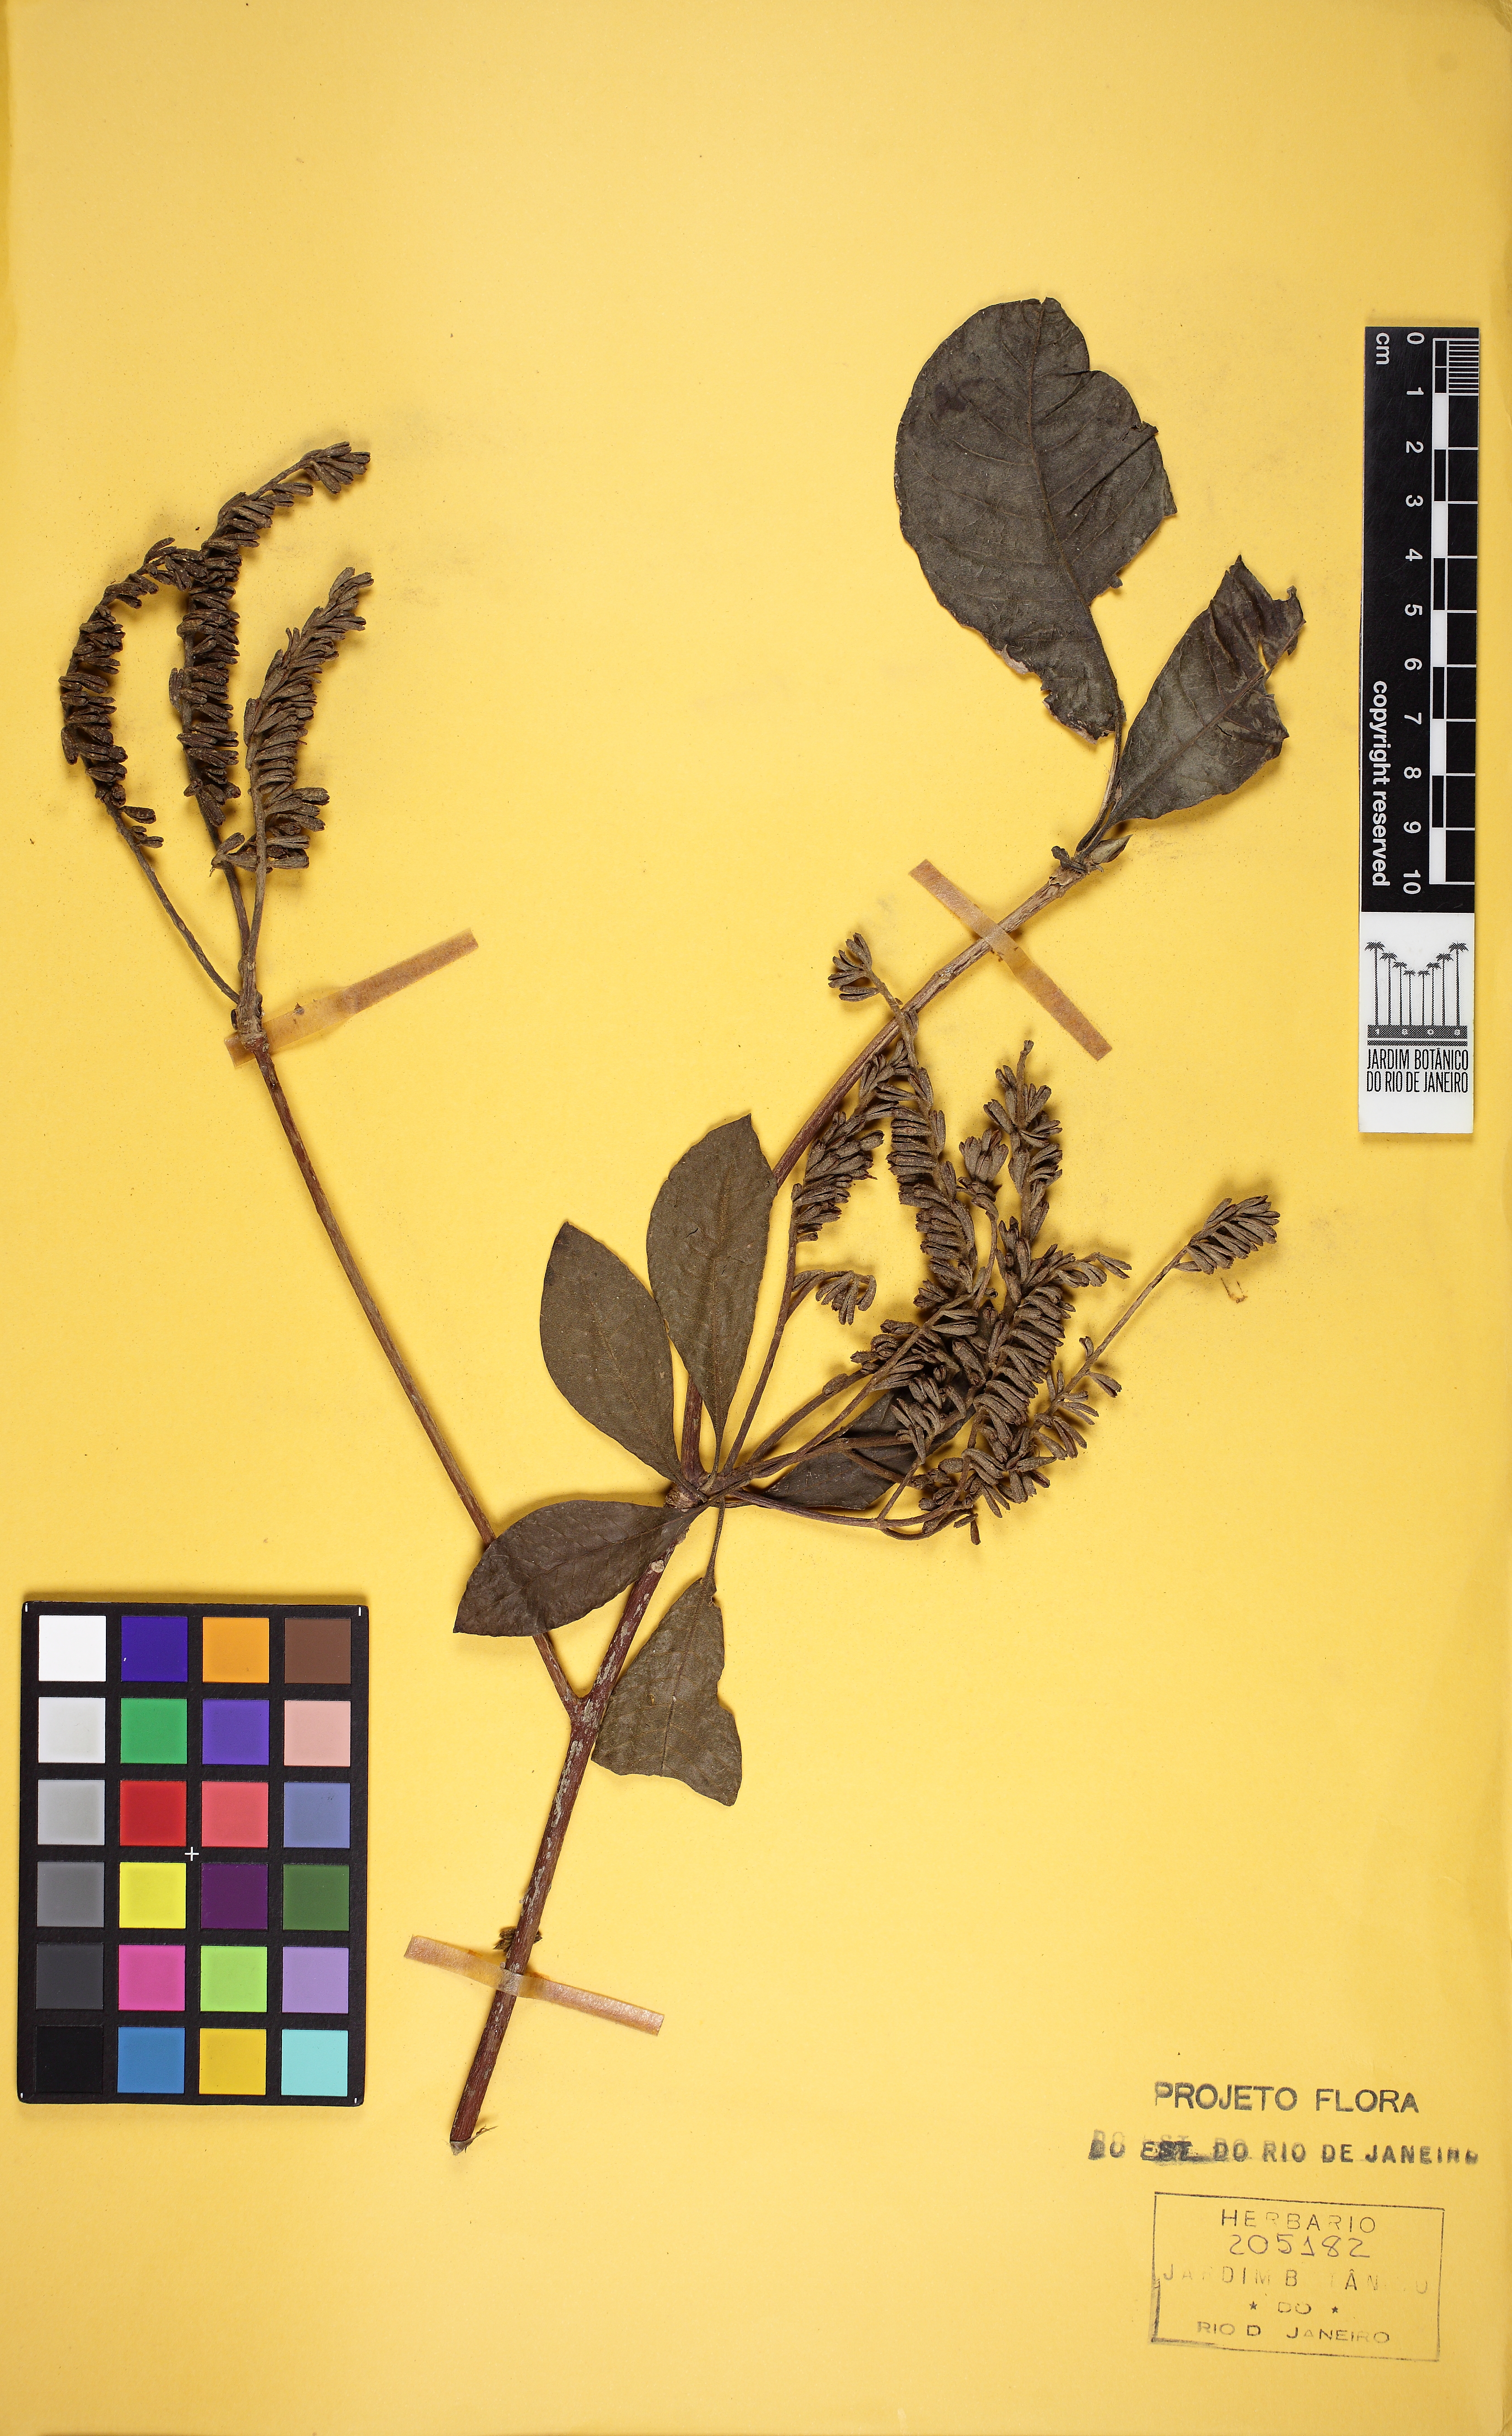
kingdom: Plantae
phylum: Tracheophyta
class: Magnoliopsida
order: Gentianales
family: Rubiaceae
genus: Alseis
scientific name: Alseis pickelii
